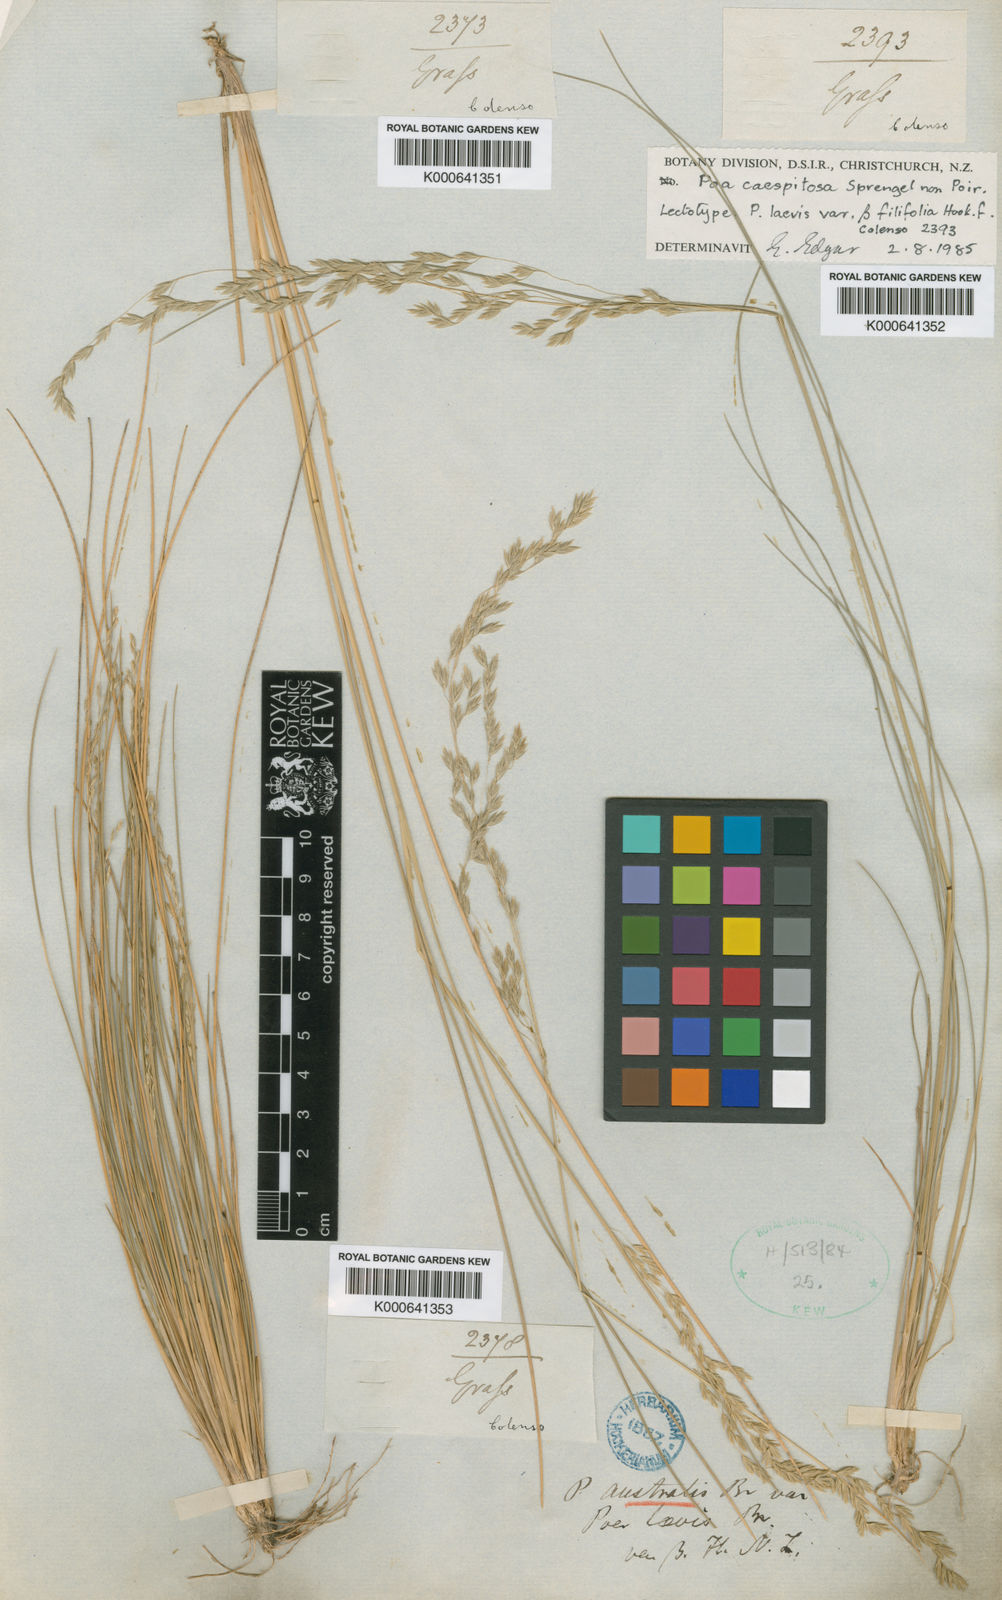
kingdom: Plantae
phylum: Tracheophyta
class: Liliopsida
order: Poales
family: Poaceae
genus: Poa
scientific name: Poa nemoralis
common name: Wood bluegrass
